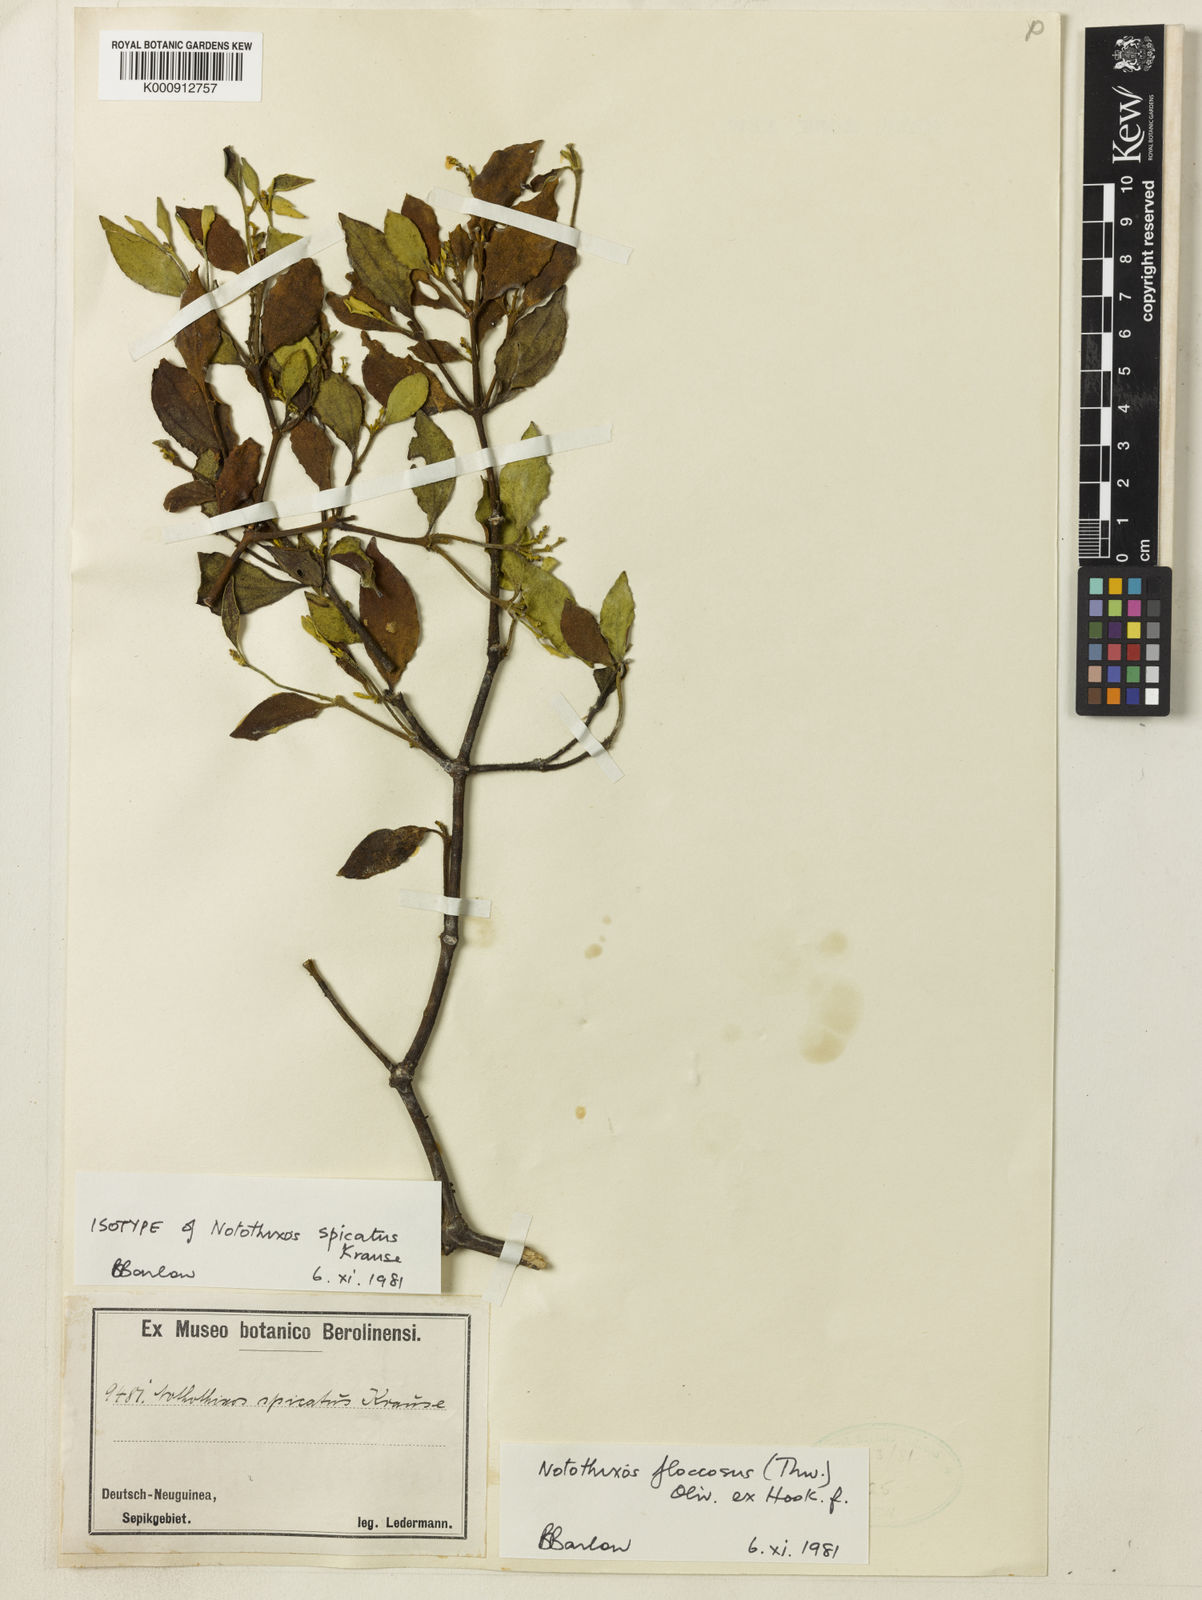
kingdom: Plantae
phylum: Tracheophyta
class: Magnoliopsida
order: Santalales
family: Viscaceae
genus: Notothixos
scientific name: Notothixos floccosus
